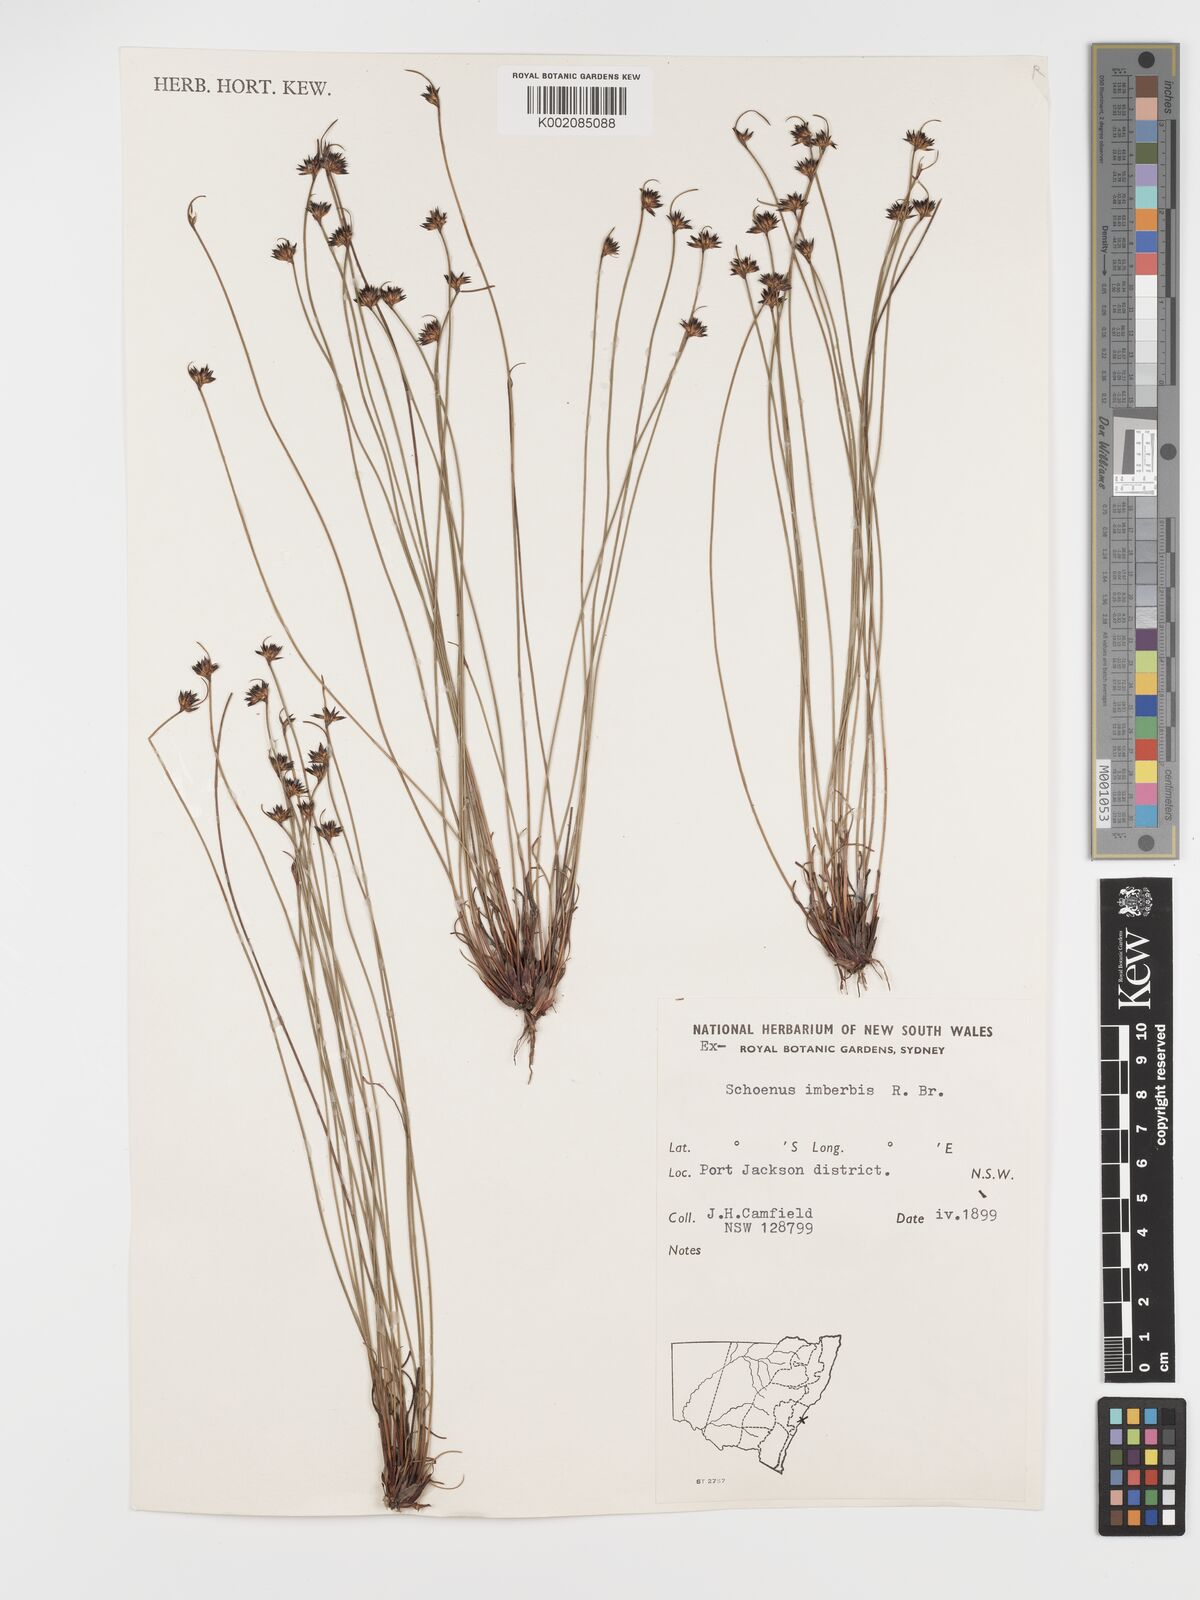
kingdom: Plantae
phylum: Tracheophyta
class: Liliopsida
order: Poales
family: Cyperaceae
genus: Schoenus
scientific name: Schoenus imberbis
